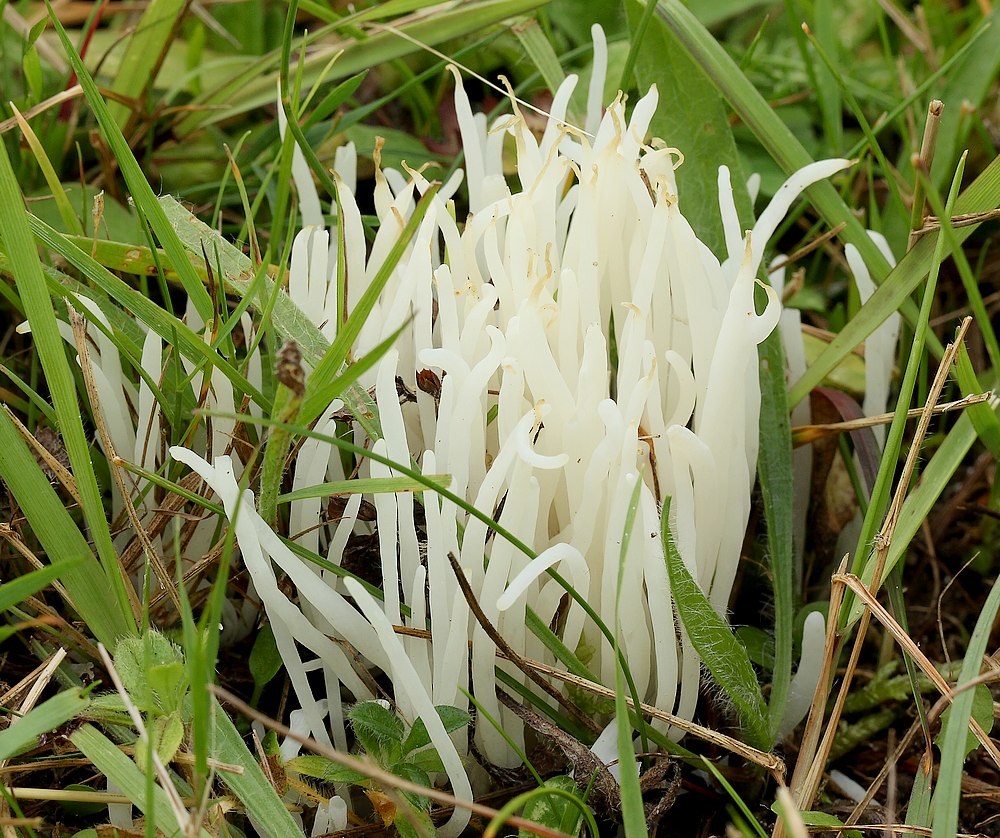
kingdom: Fungi
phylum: Basidiomycota
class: Agaricomycetes
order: Agaricales
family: Clavariaceae
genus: Clavaria
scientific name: Clavaria fragilis
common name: bugtet køllesvamp
